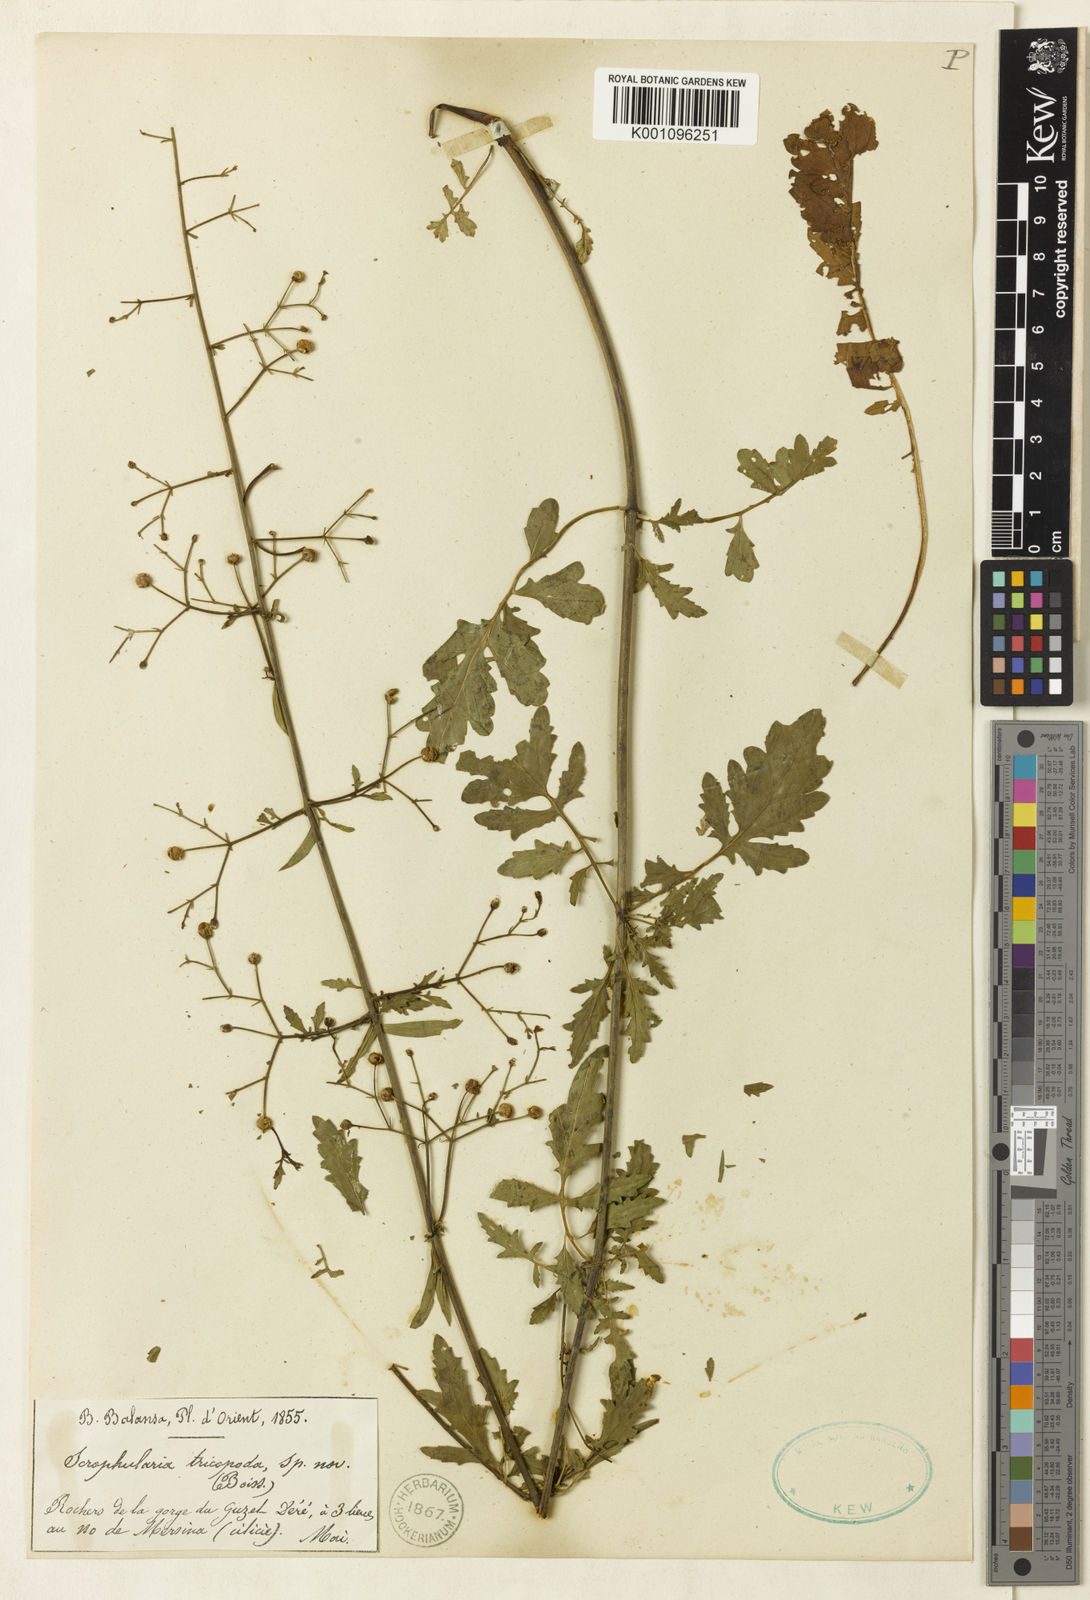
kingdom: Plantae
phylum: Tracheophyta
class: Magnoliopsida
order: Lamiales
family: Scrophulariaceae
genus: Scrophularia
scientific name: Scrophularia trichopoda
